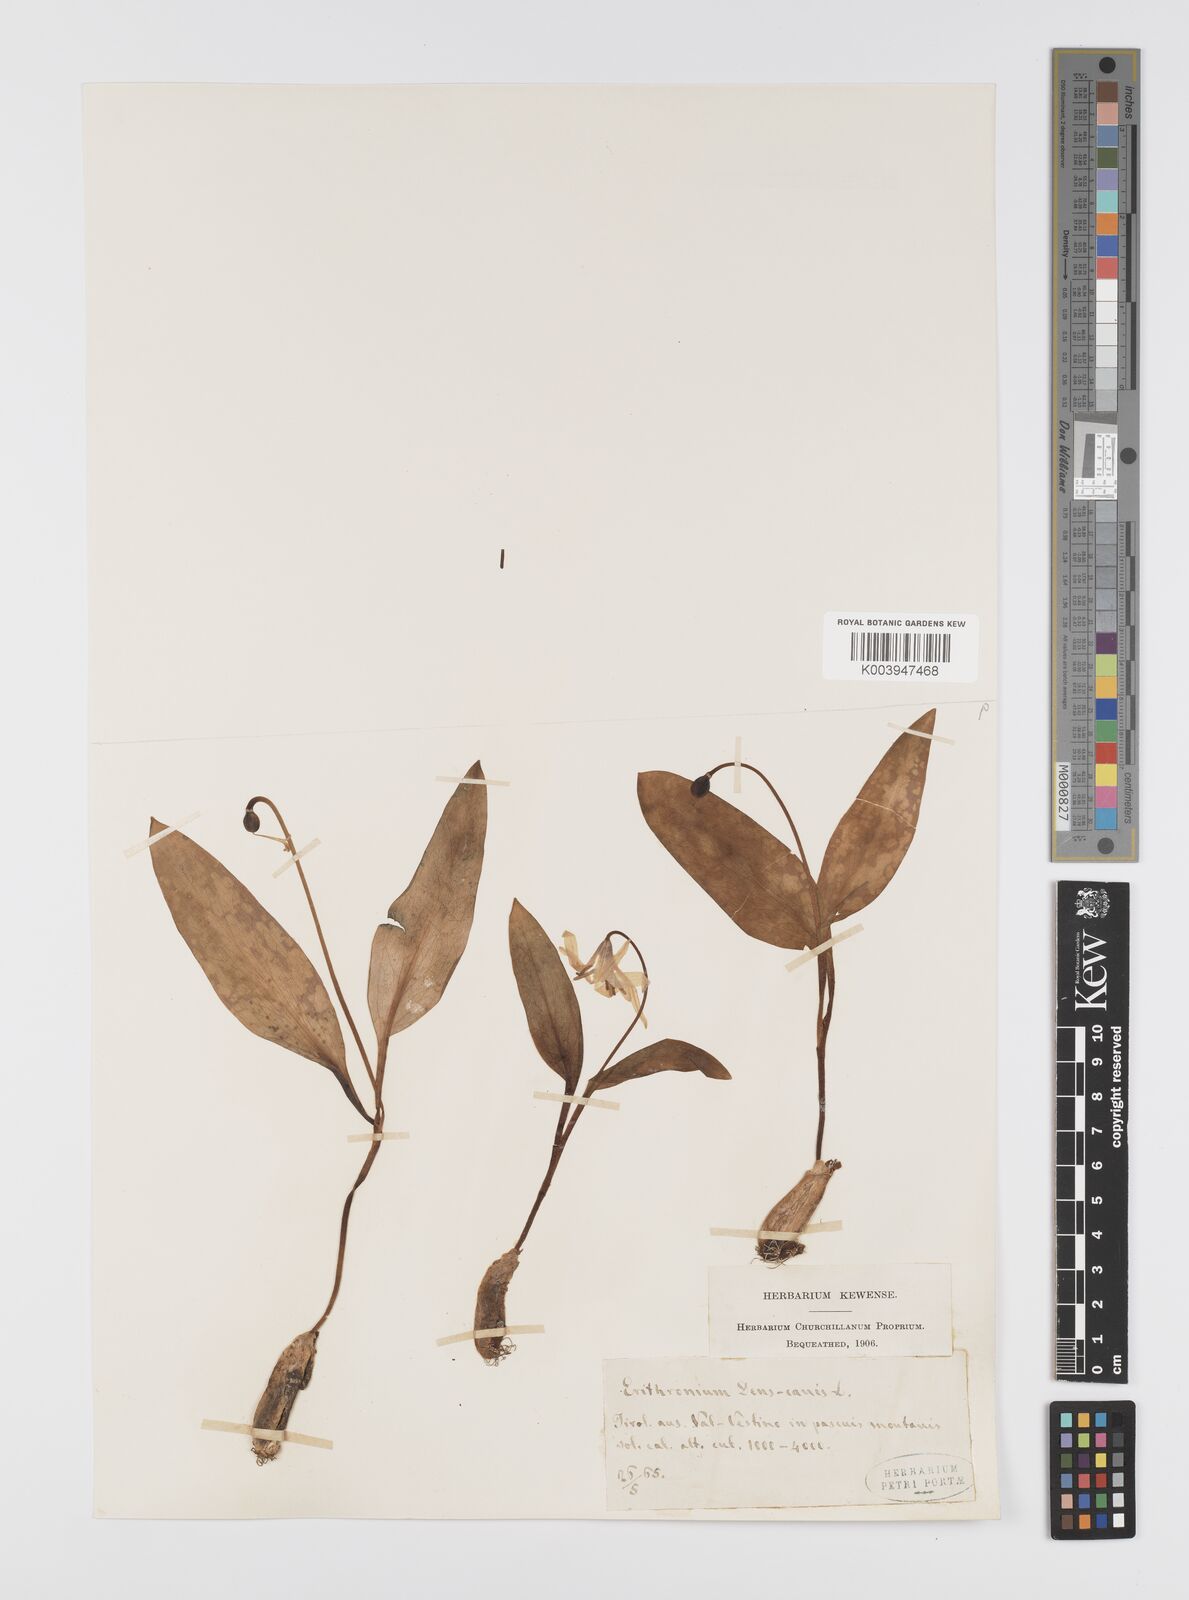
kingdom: Plantae
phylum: Tracheophyta
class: Liliopsida
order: Liliales
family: Liliaceae
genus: Erythronium
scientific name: Erythronium dens-canis
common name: Dog's-tooth-violet
